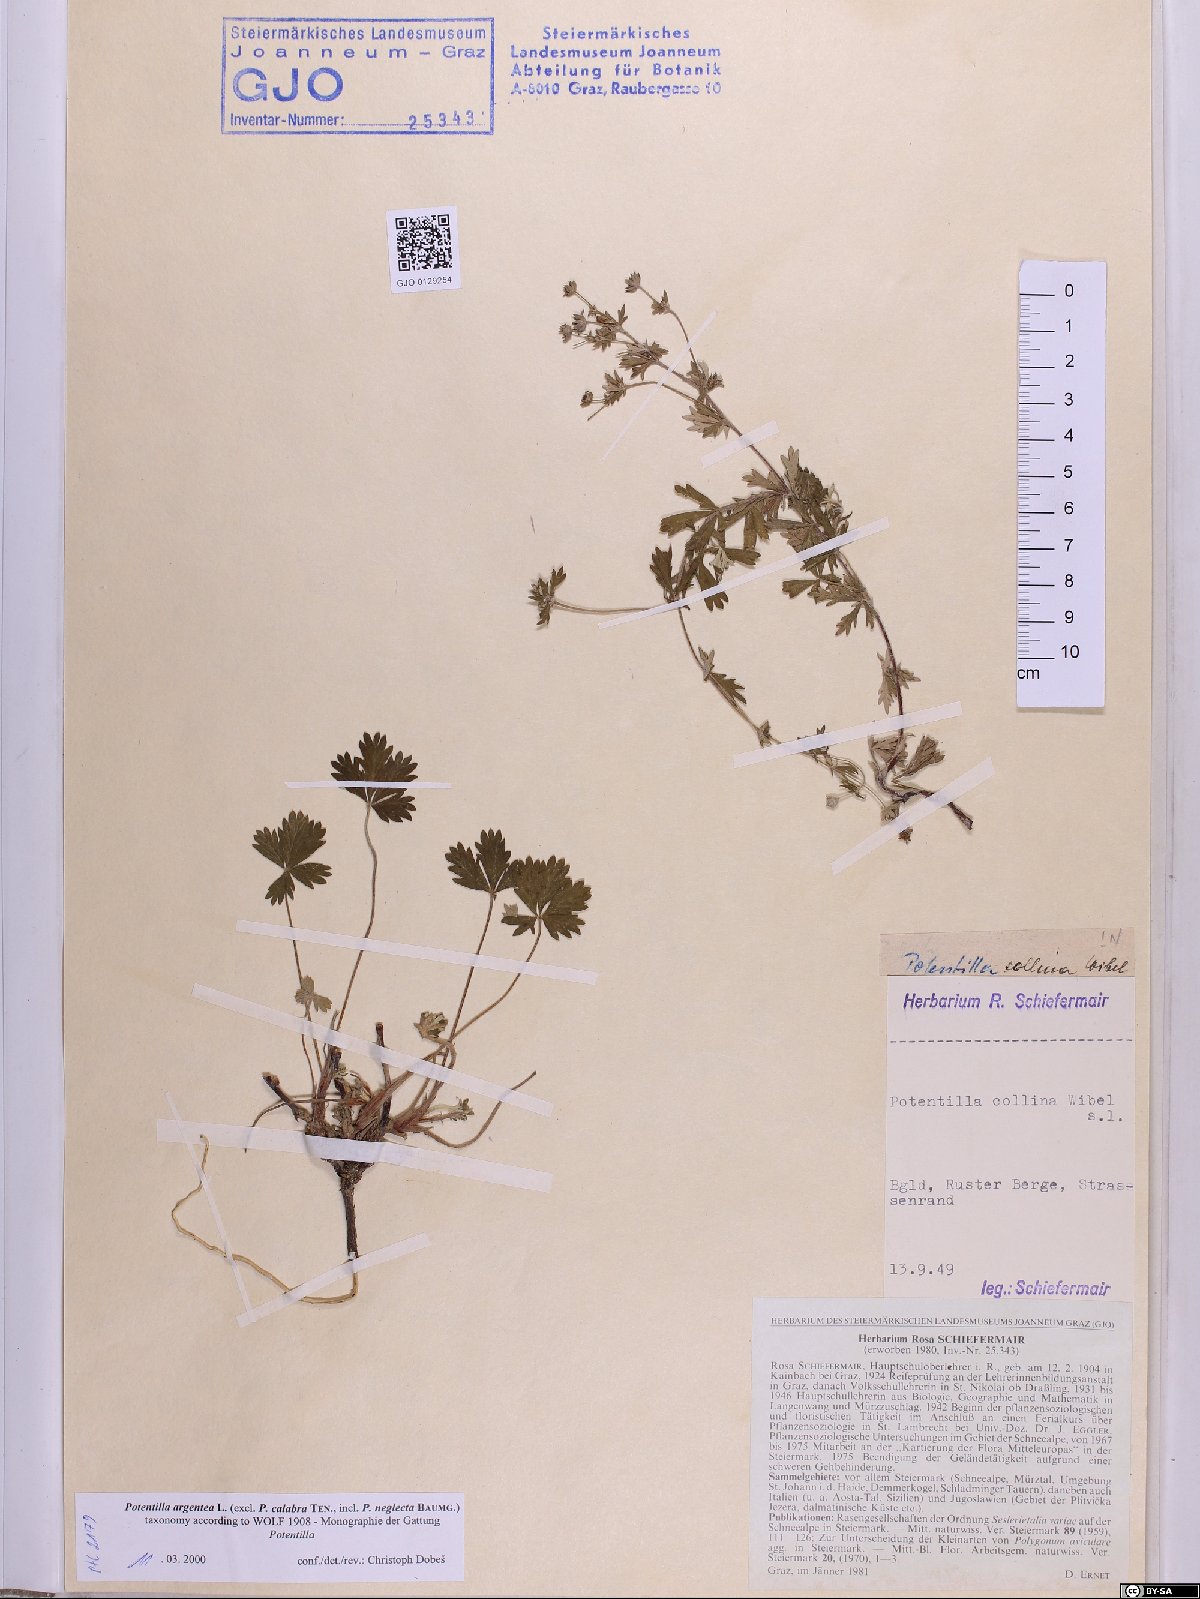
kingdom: Plantae
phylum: Tracheophyta
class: Magnoliopsida
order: Rosales
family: Rosaceae
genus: Potentilla
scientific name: Potentilla argentea
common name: Hoary cinquefoil
